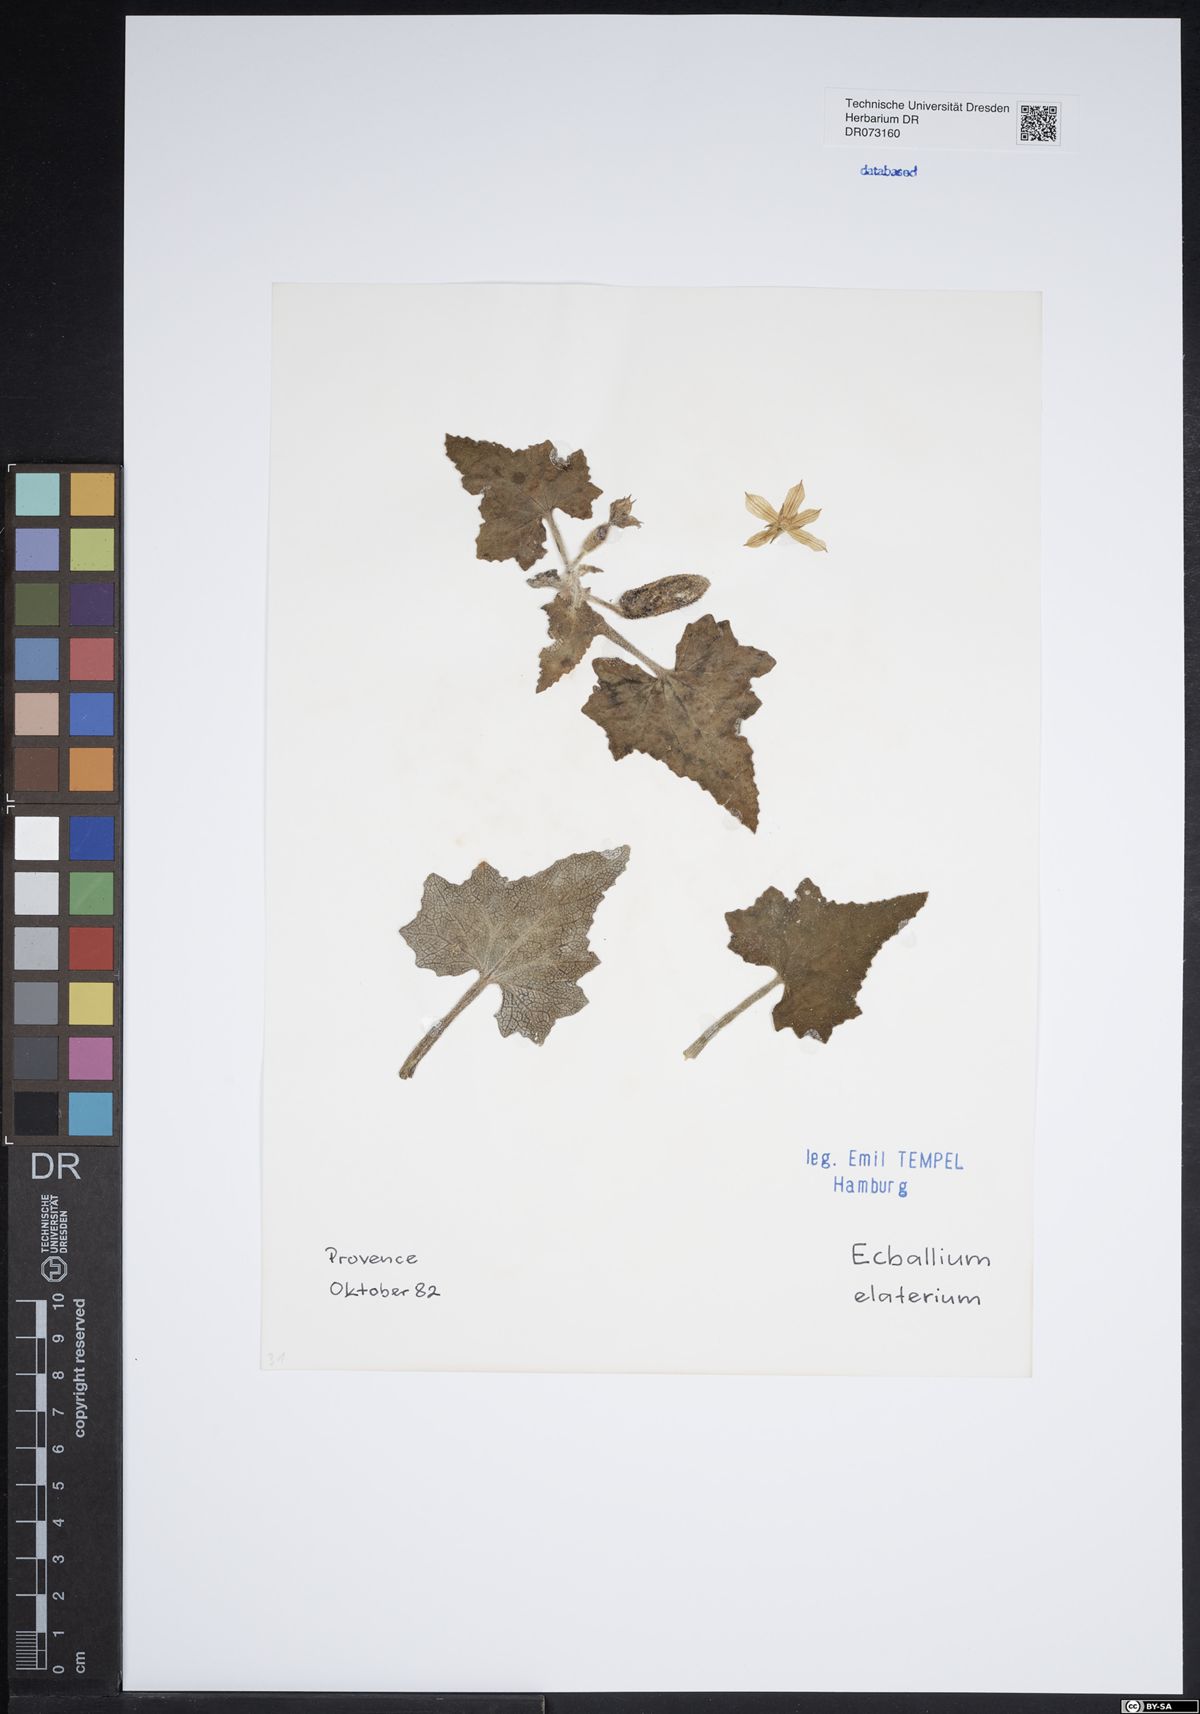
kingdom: Plantae
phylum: Tracheophyta
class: Magnoliopsida
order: Cucurbitales
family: Cucurbitaceae
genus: Ecballium
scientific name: Ecballium elaterium
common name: Squirting cucumber
